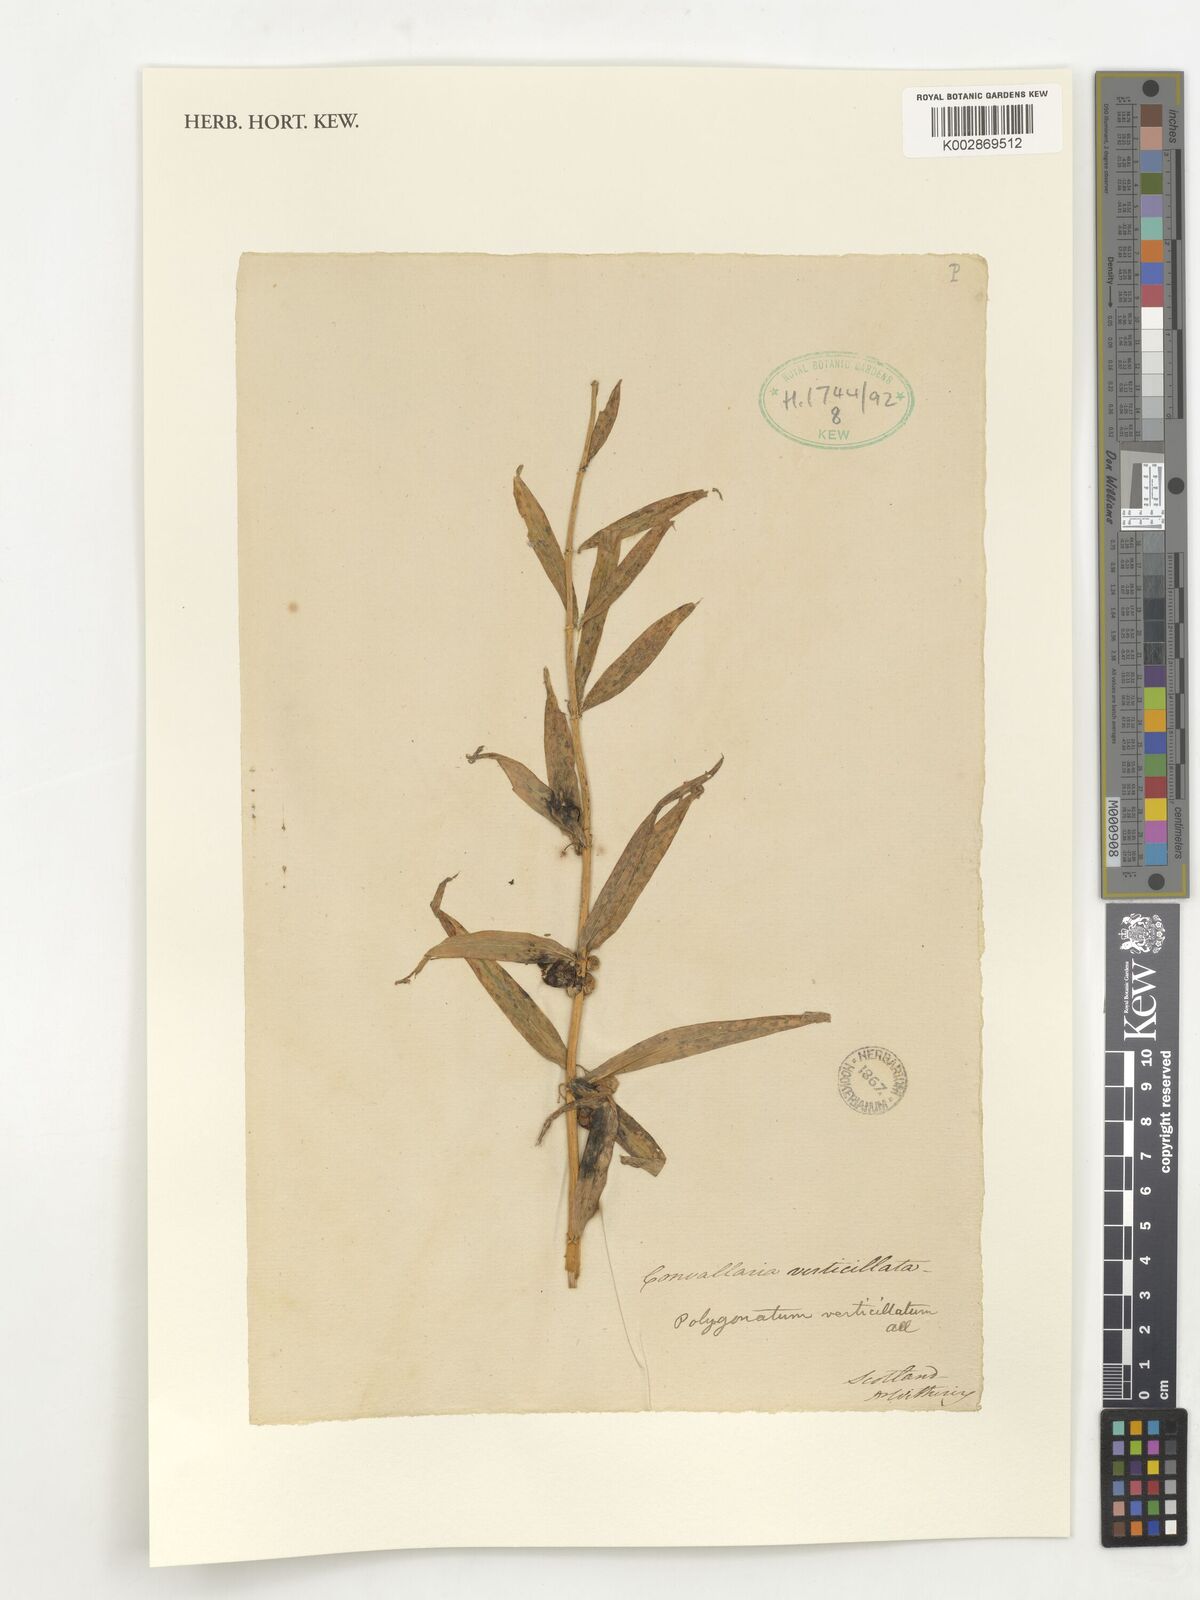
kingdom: Plantae
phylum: Tracheophyta
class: Liliopsida
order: Asparagales
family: Asparagaceae
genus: Polygonatum
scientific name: Polygonatum verticillatum
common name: Whorled solomon's-seal
